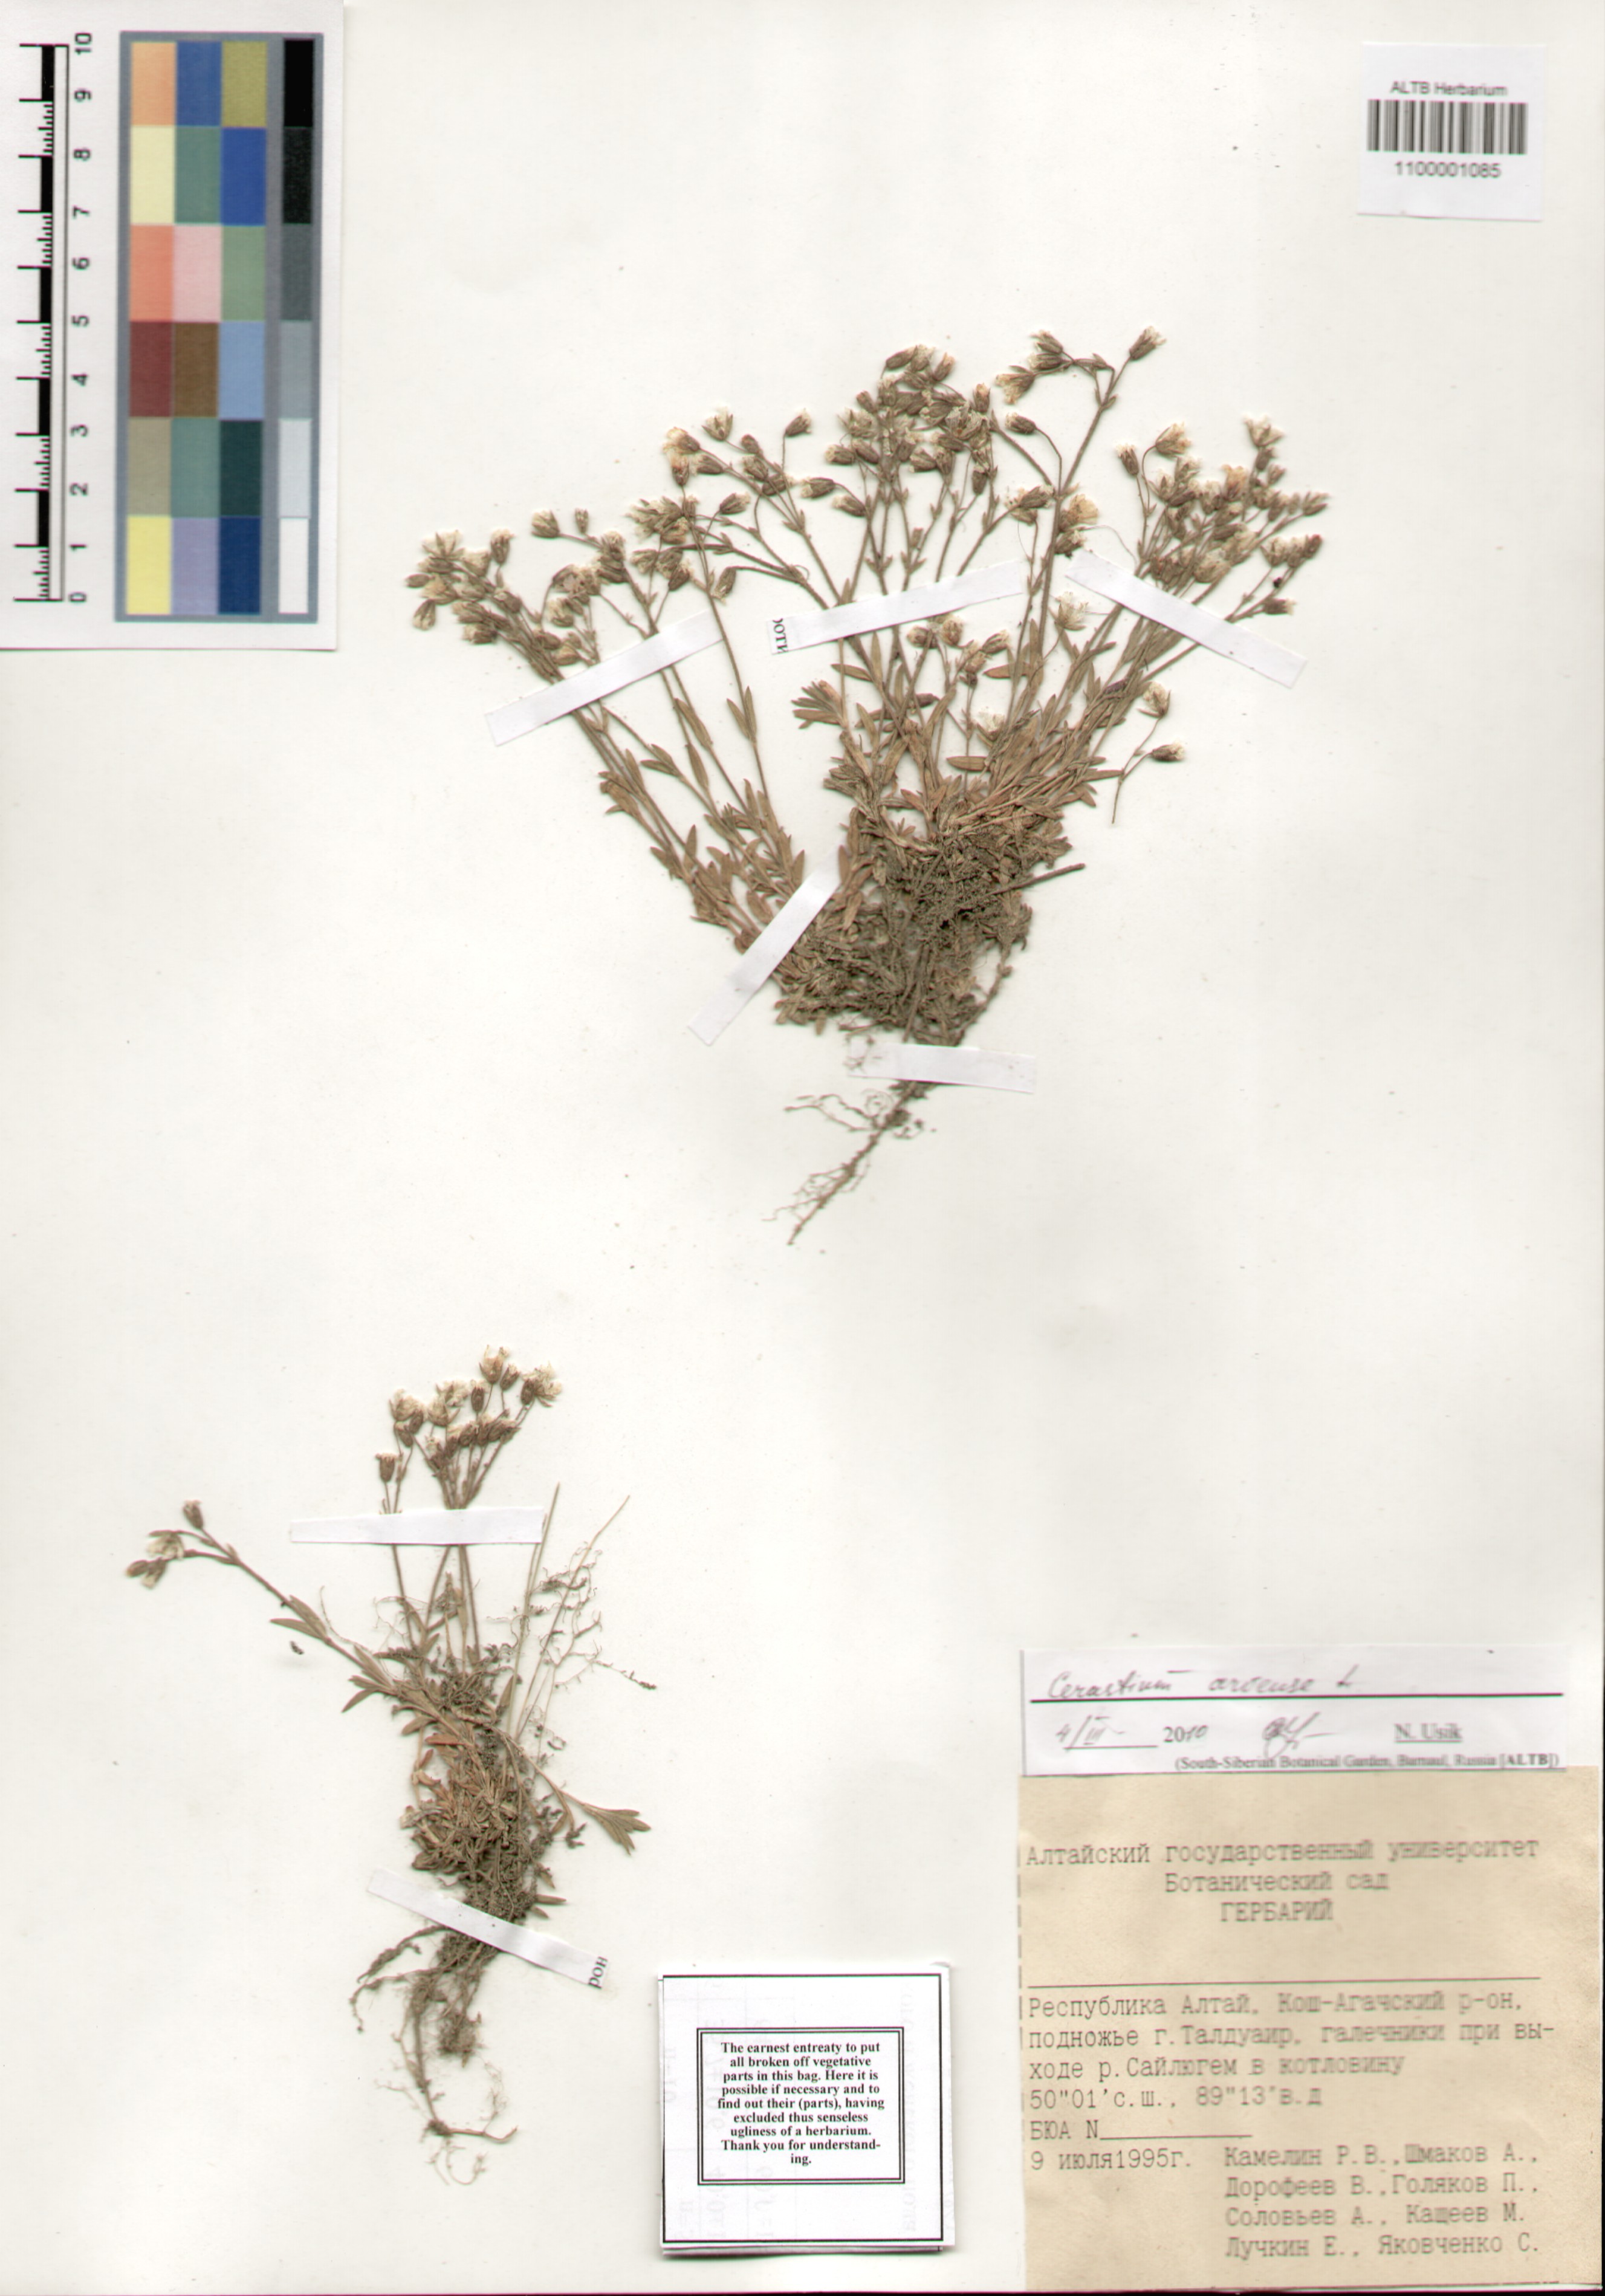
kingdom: Plantae
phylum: Tracheophyta
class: Magnoliopsida
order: Caryophyllales
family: Caryophyllaceae
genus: Cerastium
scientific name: Cerastium arvense
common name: Field mouse-ear
